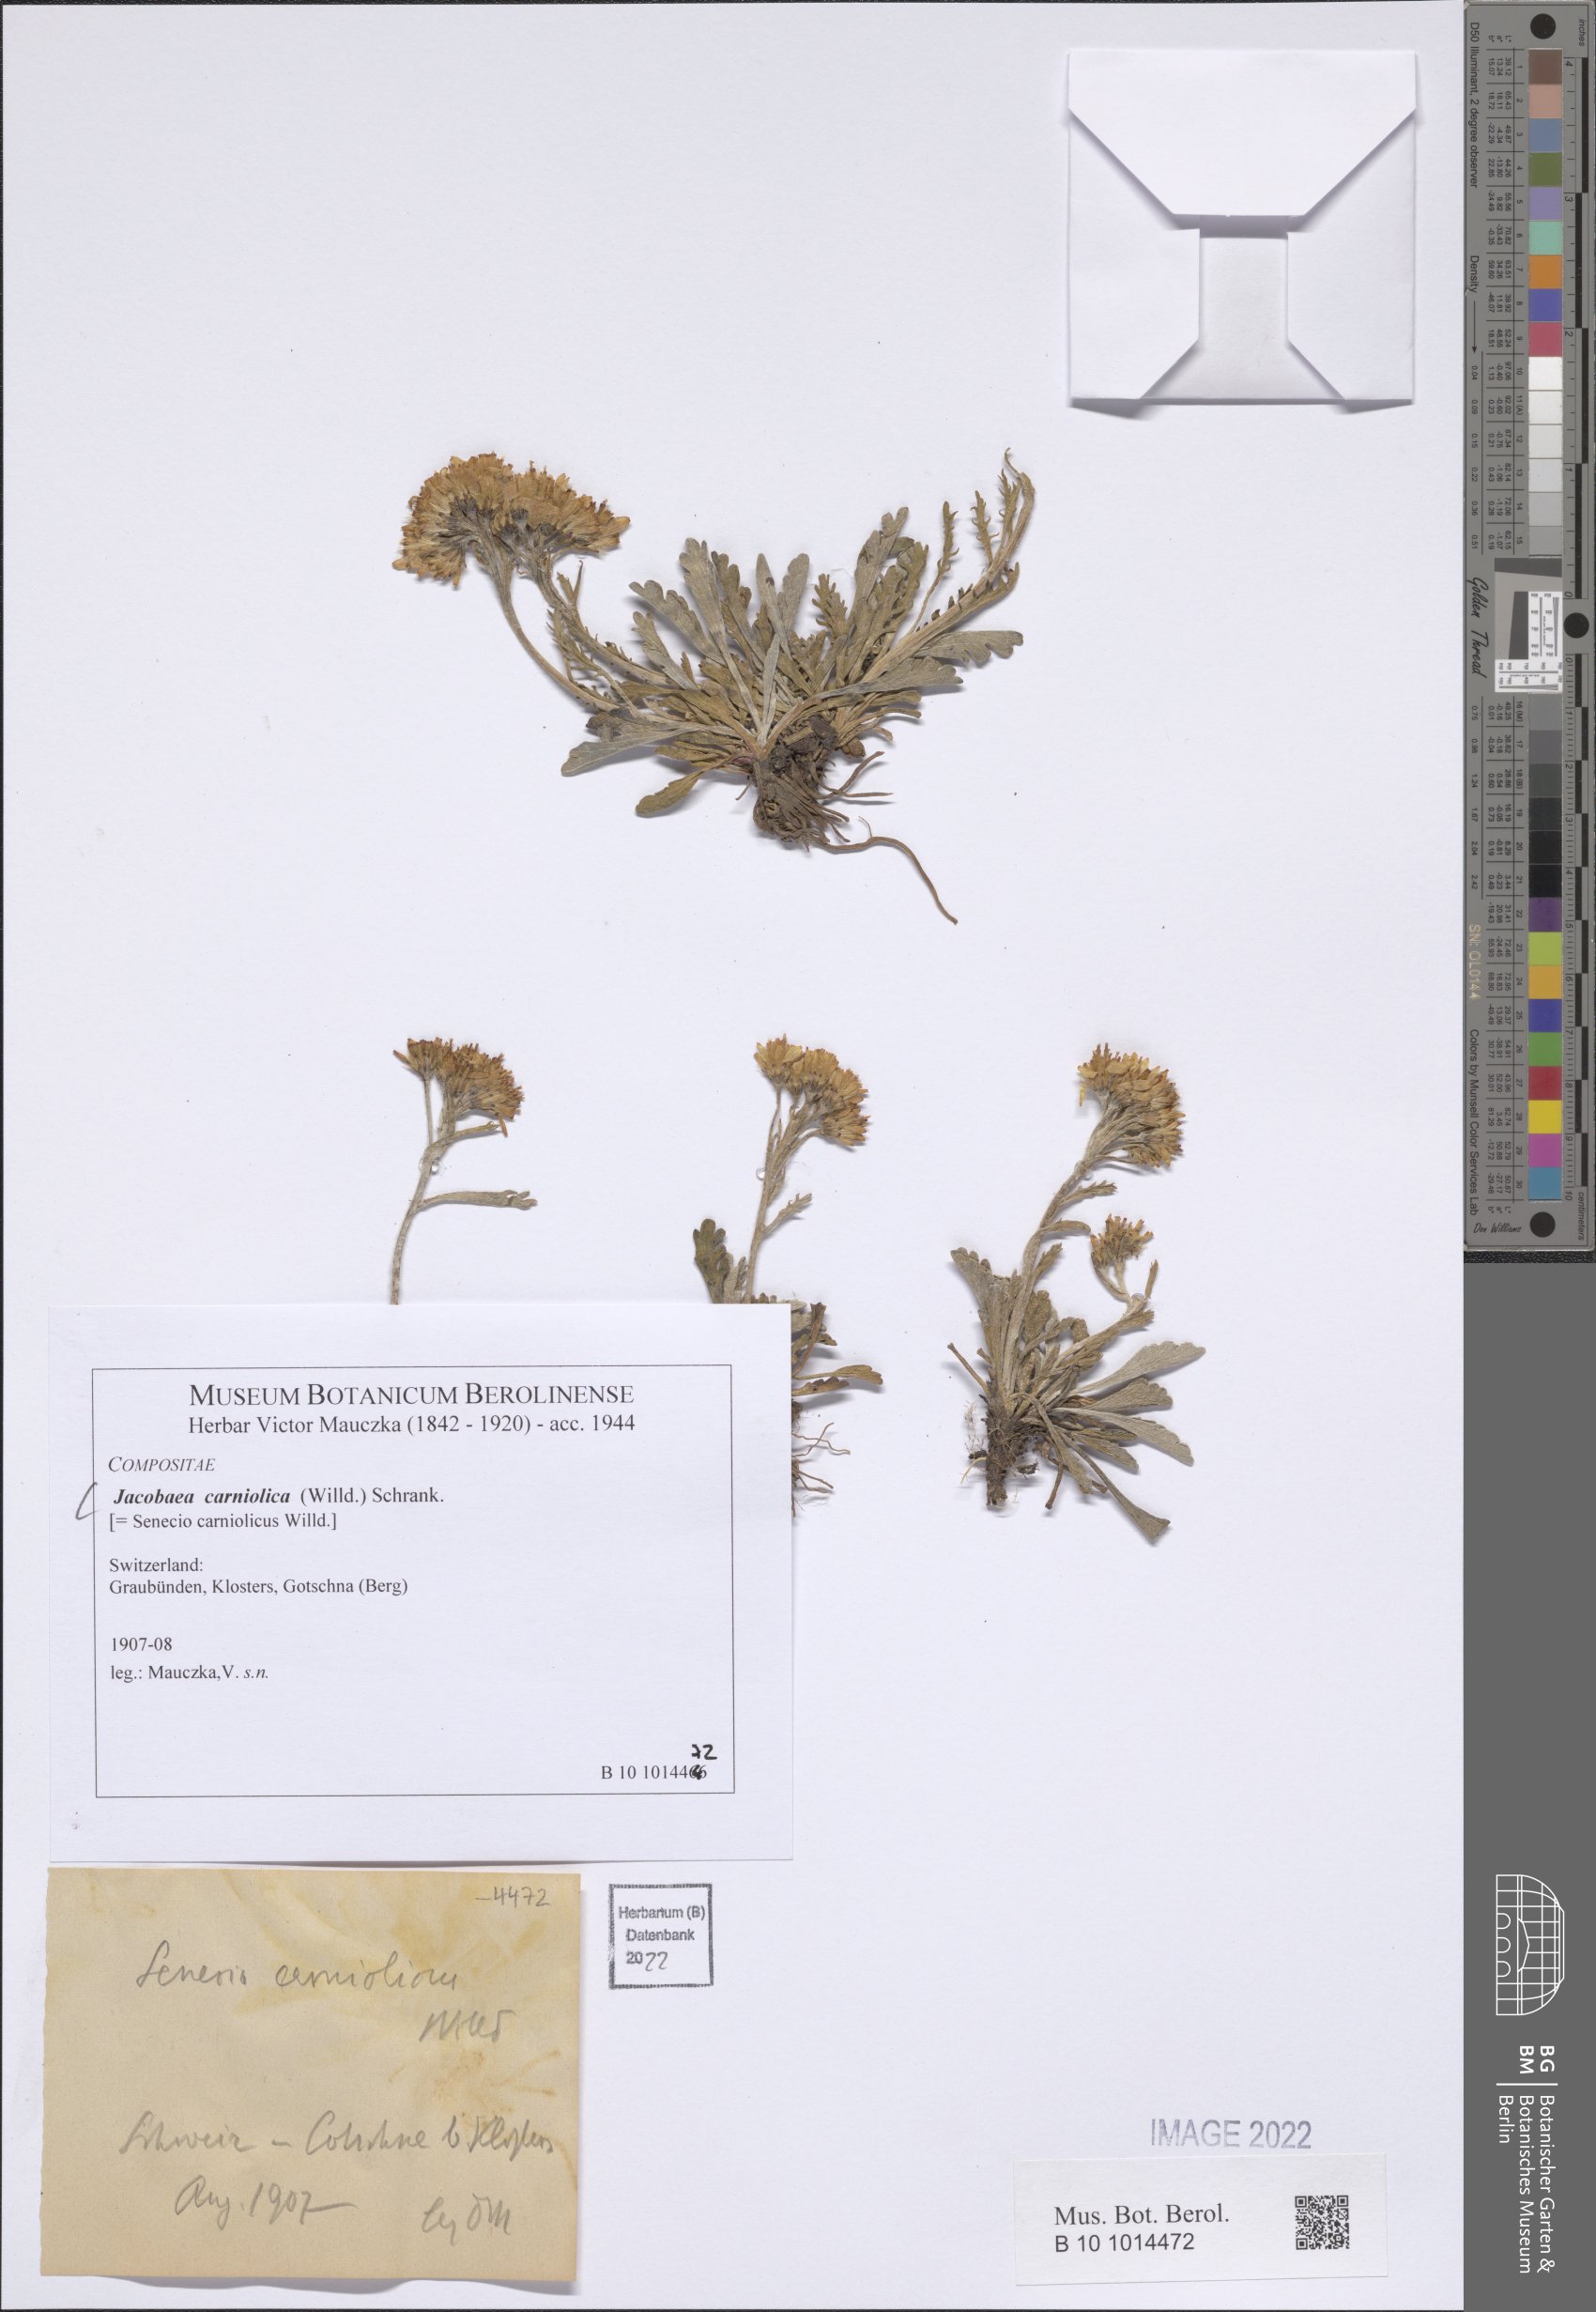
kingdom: Plantae
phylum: Tracheophyta
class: Magnoliopsida
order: Asterales
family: Asteraceae
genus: Jacobaea
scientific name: Jacobaea carniolica
